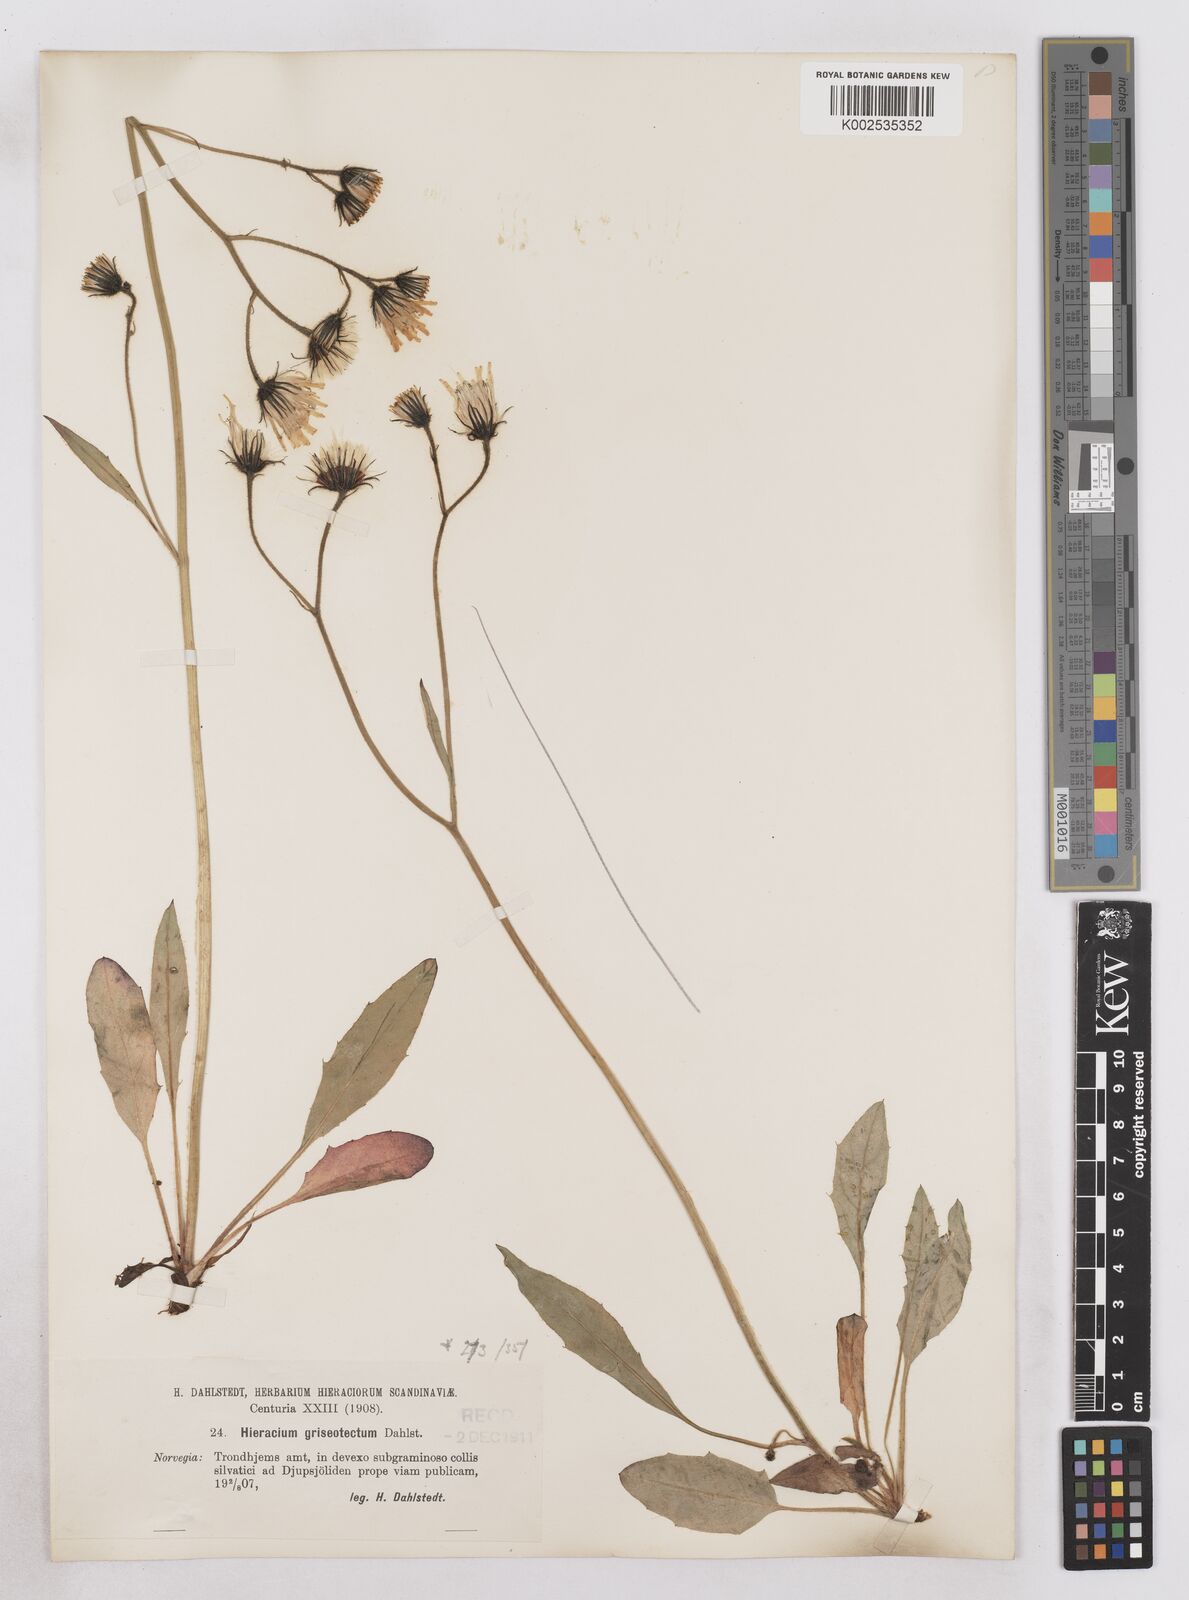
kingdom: Plantae
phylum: Tracheophyta
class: Magnoliopsida
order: Asterales
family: Asteraceae
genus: Hieracium
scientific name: Hieracium conspurcans
